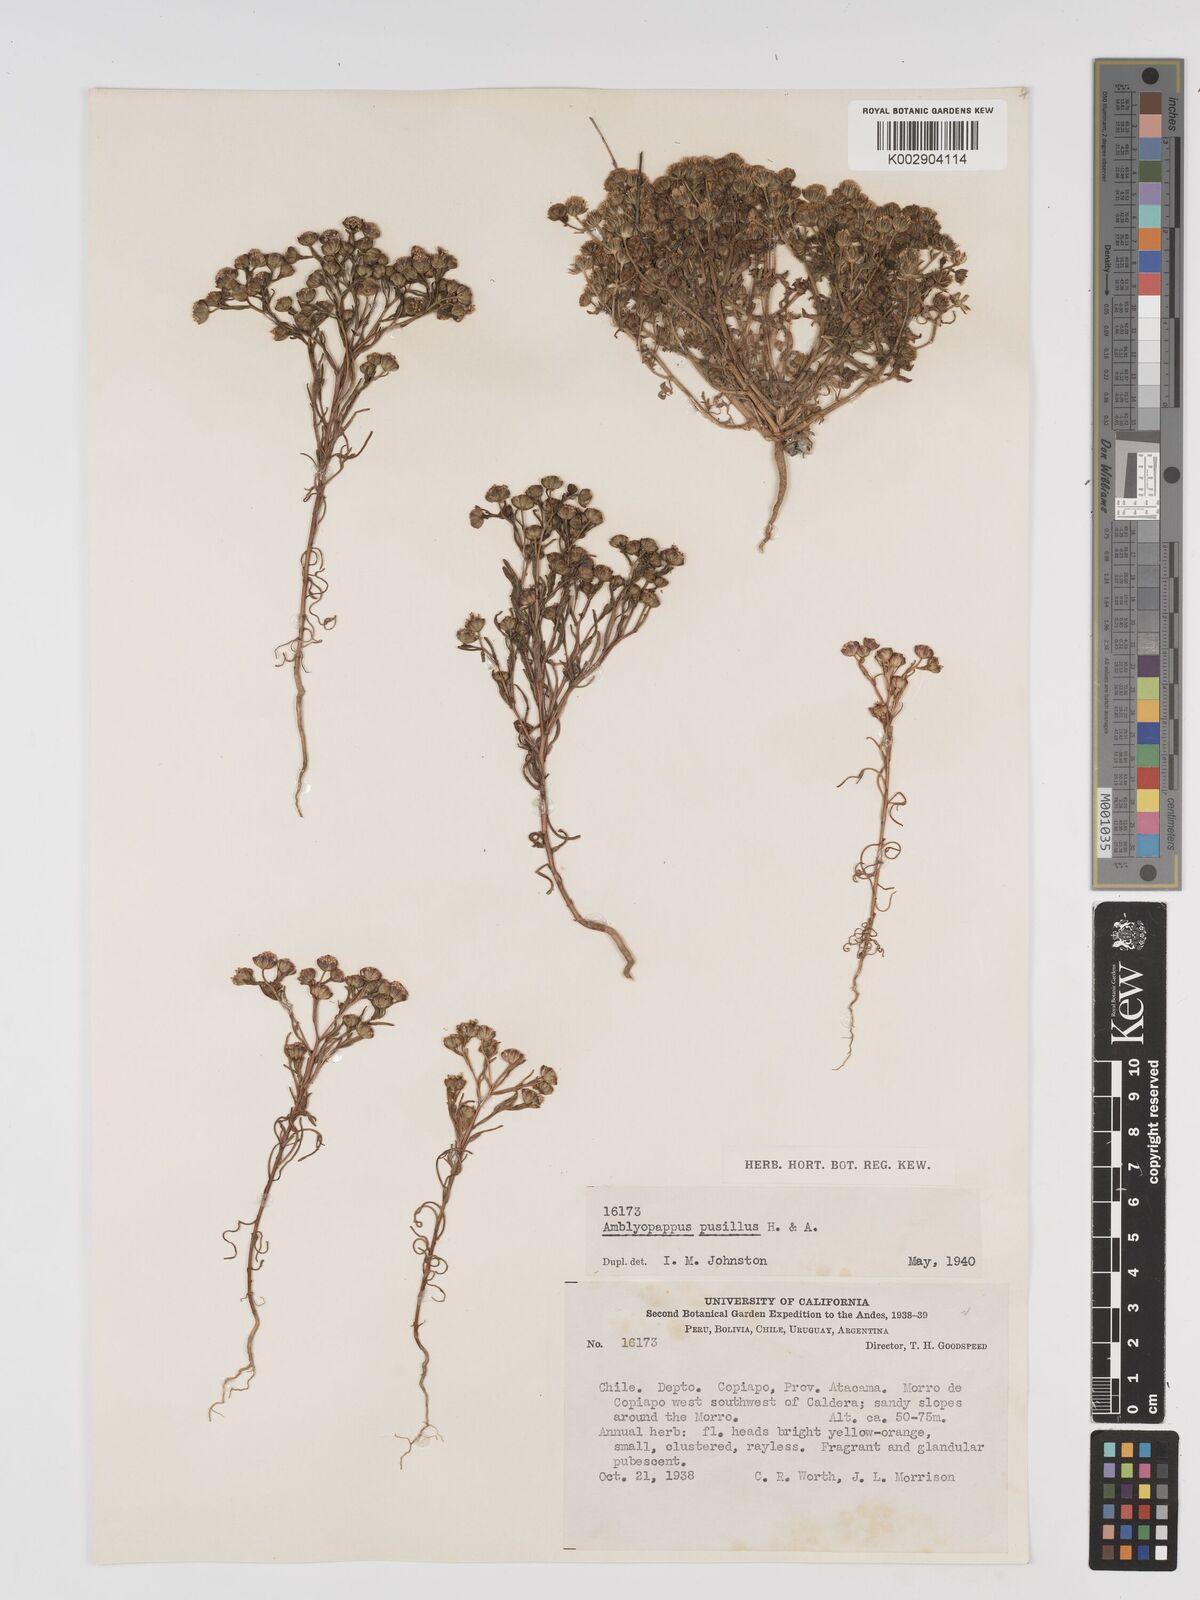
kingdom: Plantae
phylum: Tracheophyta
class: Magnoliopsida
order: Asterales
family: Asteraceae
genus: Amblyopappus
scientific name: Amblyopappus pusillus
